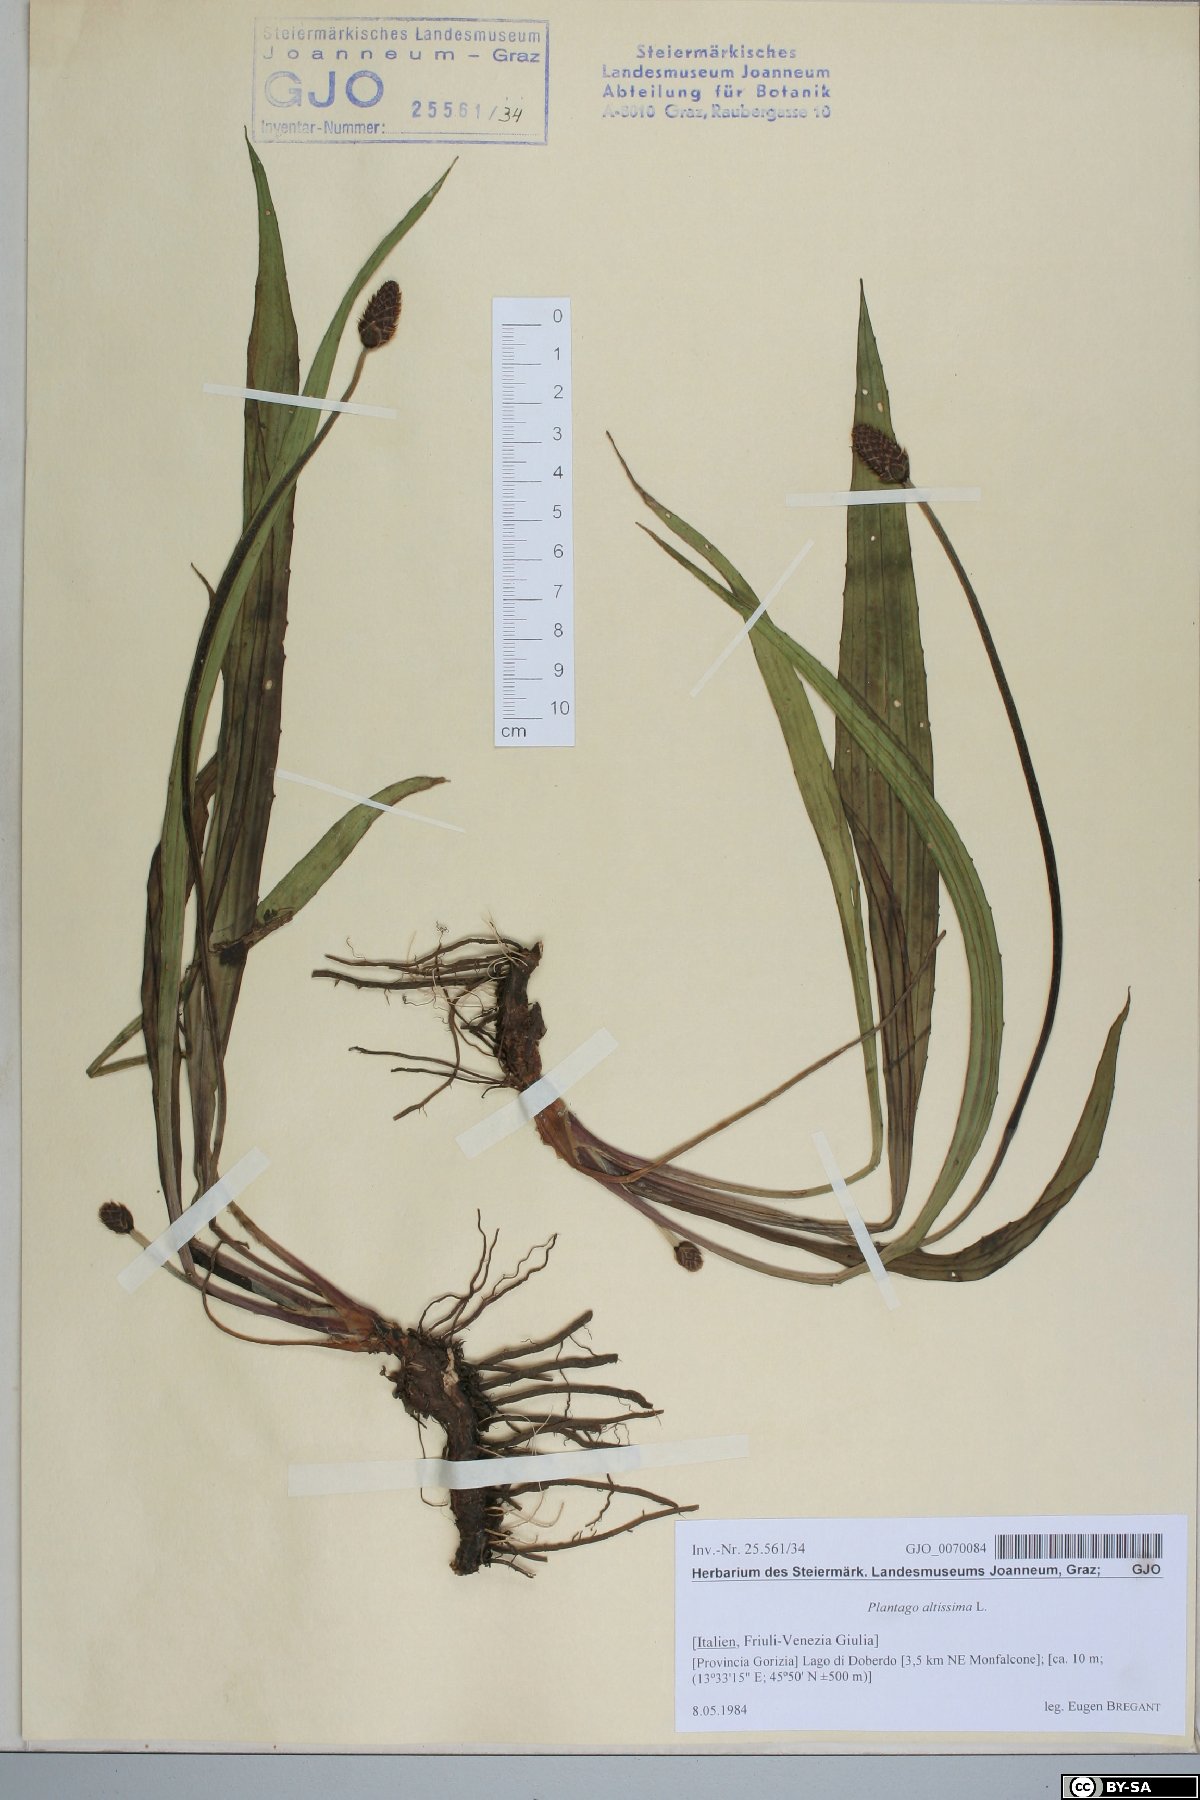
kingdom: Plantae
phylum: Tracheophyta
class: Magnoliopsida
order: Lamiales
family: Plantaginaceae
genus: Plantago
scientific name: Plantago altissima
